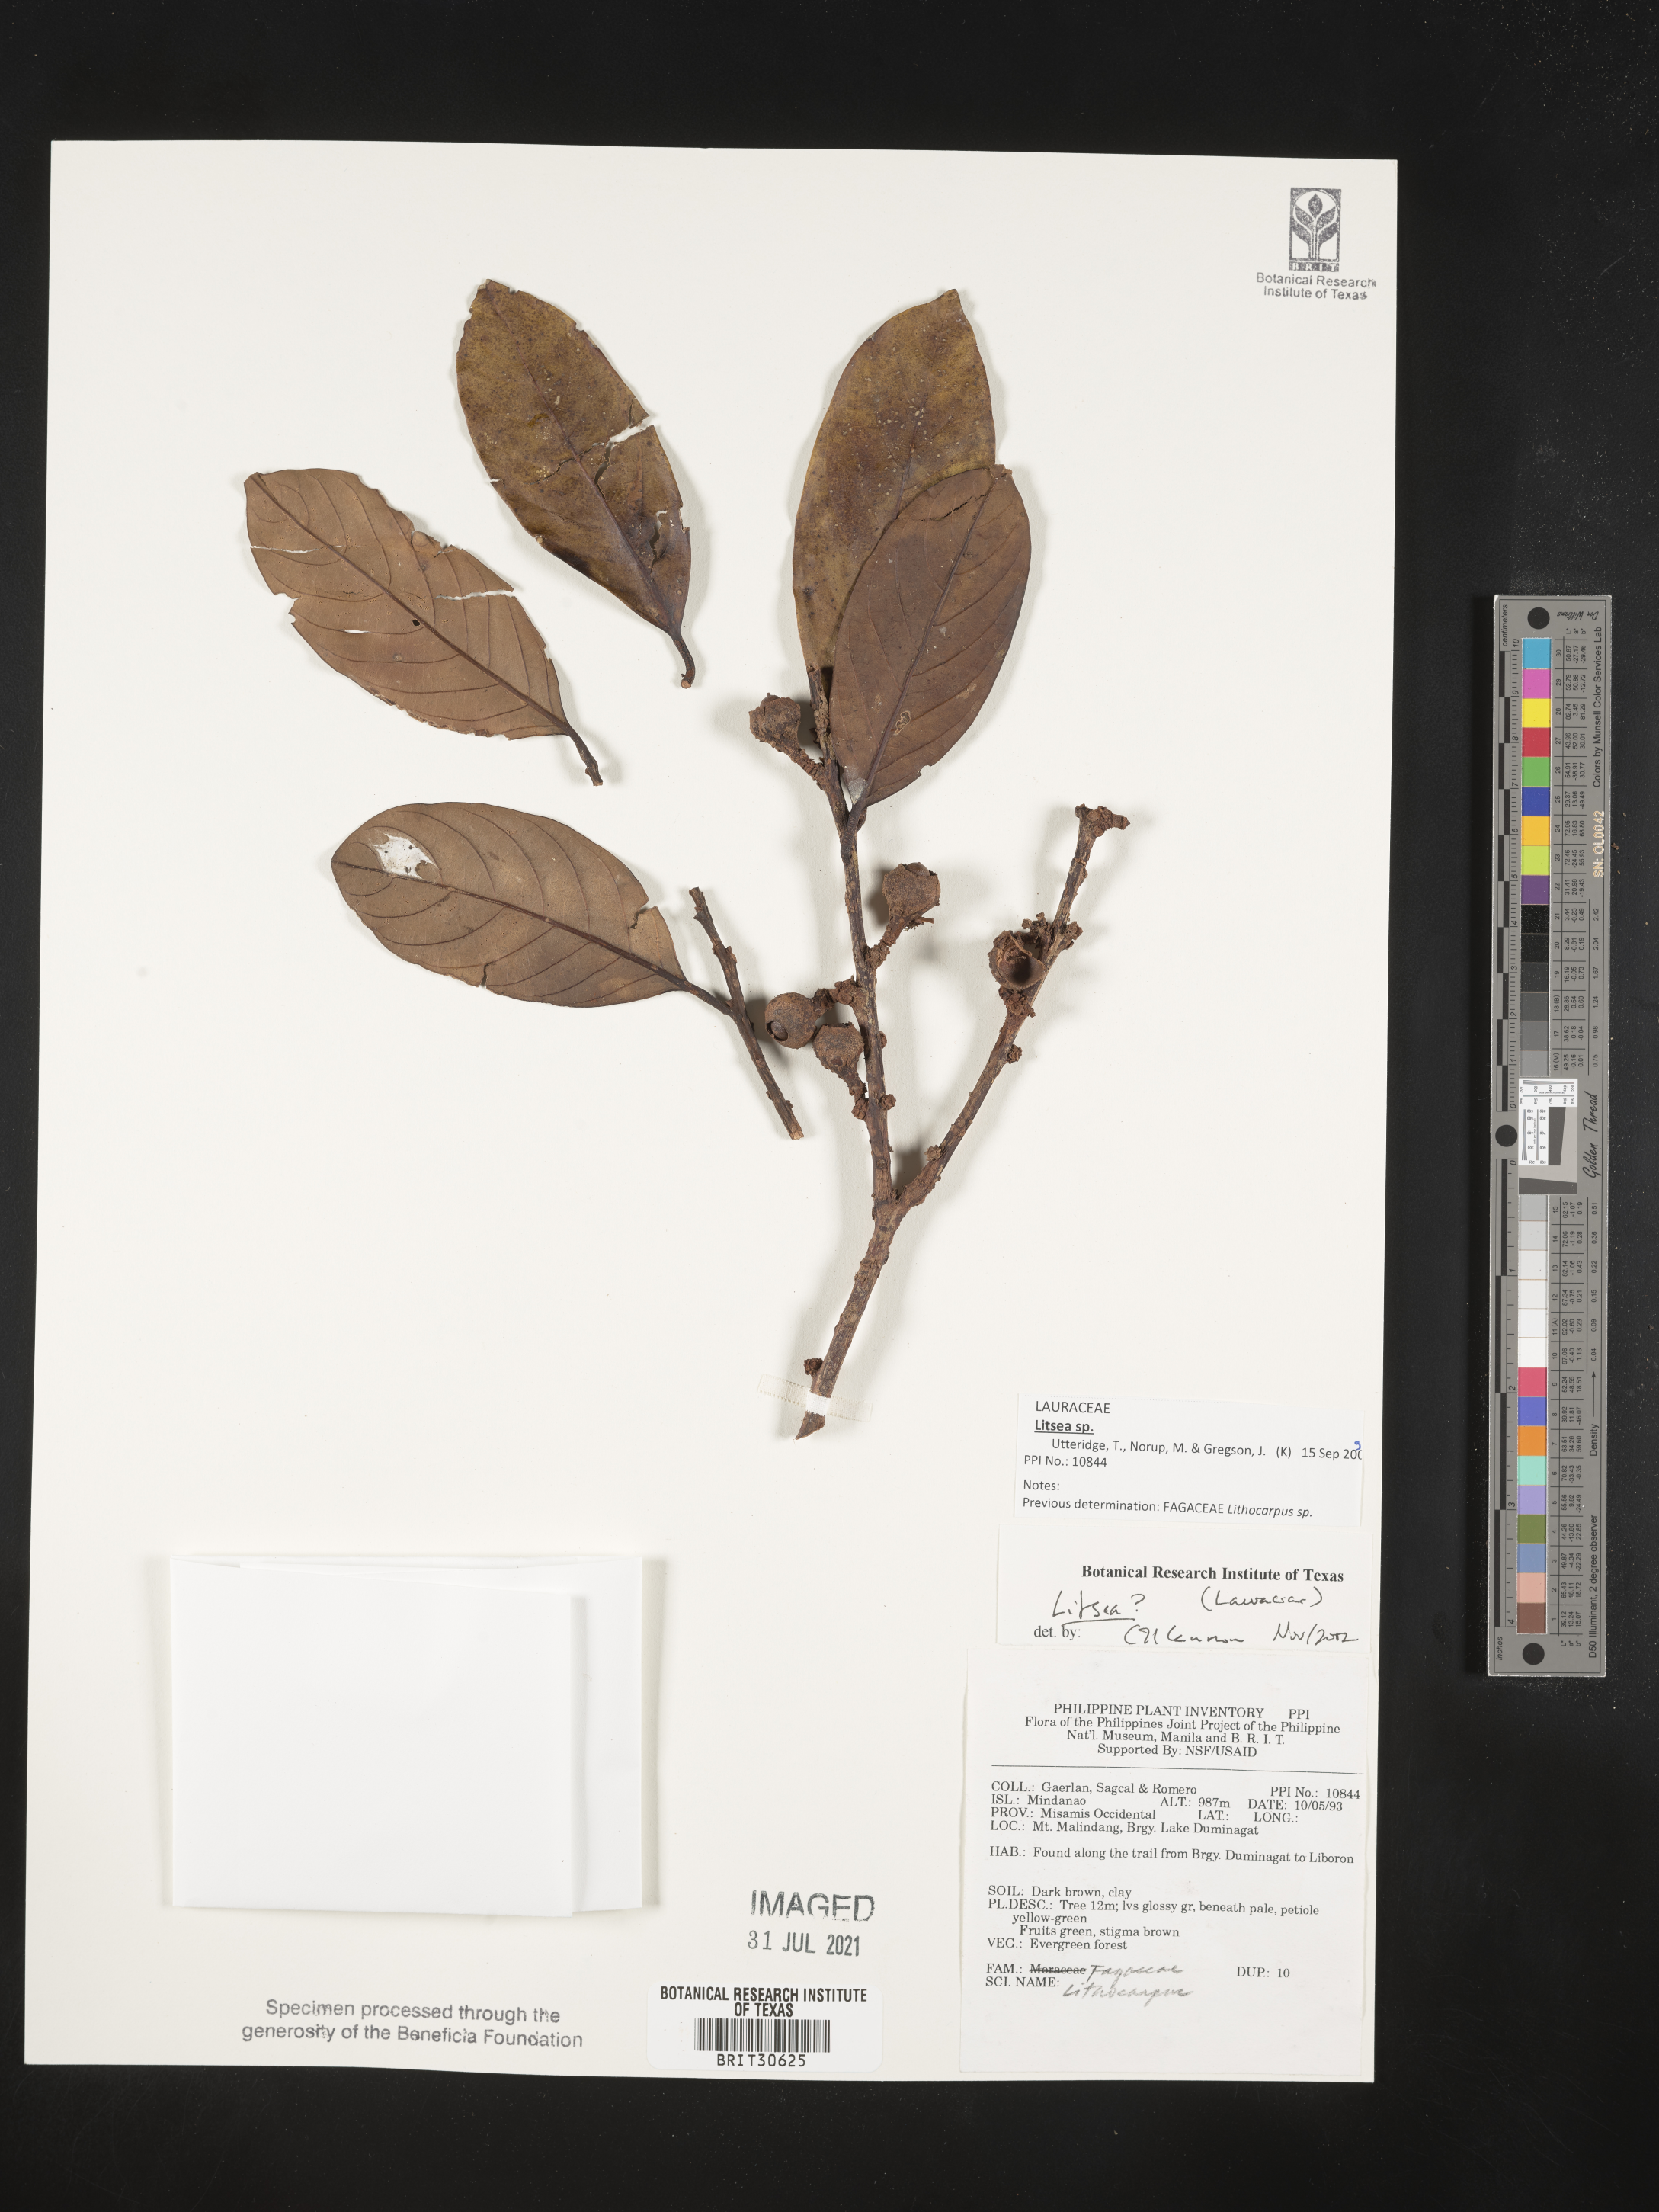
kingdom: Plantae
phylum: Tracheophyta
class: Magnoliopsida
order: Laurales
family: Lauraceae
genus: Litsea
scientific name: Litsea
